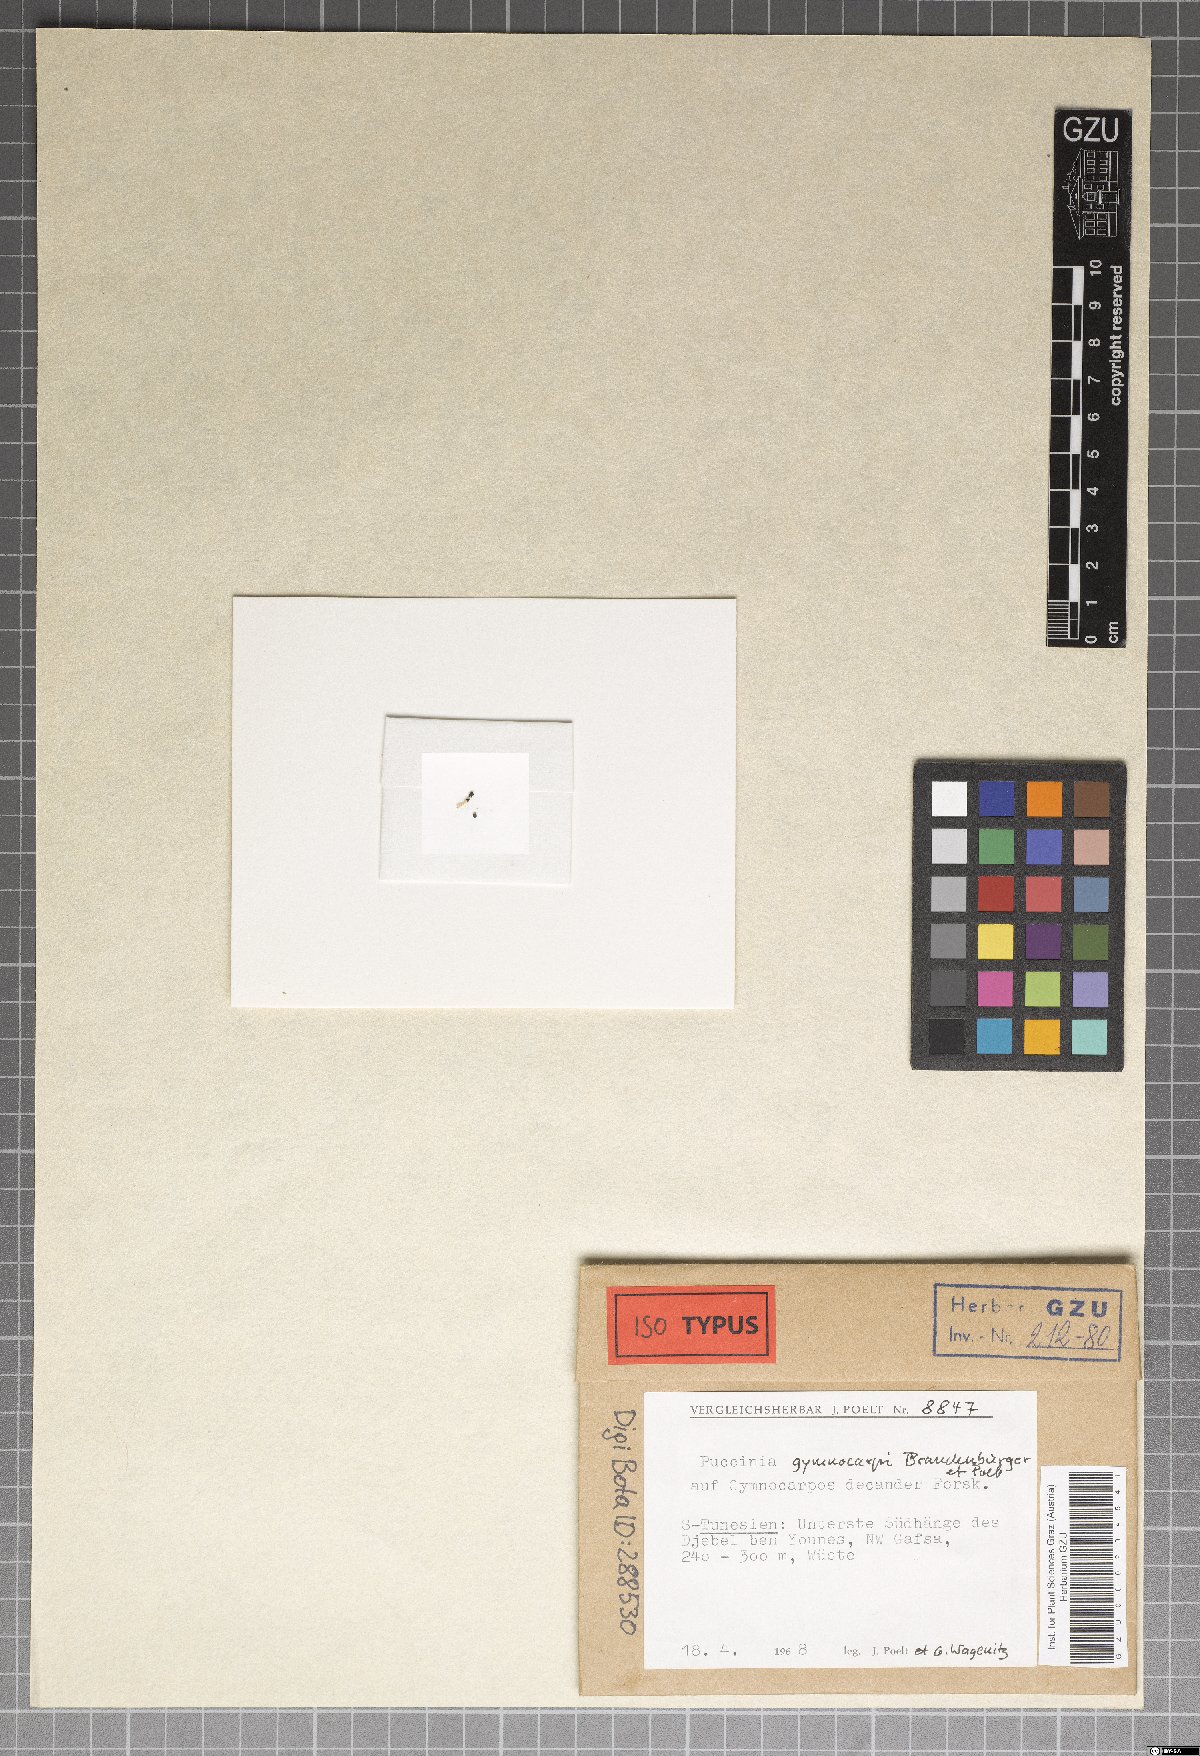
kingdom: Fungi
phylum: Basidiomycota
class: Pucciniomycetes
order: Pucciniales
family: Pucciniaceae
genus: Puccinia
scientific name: Puccinia gymnocarpi
